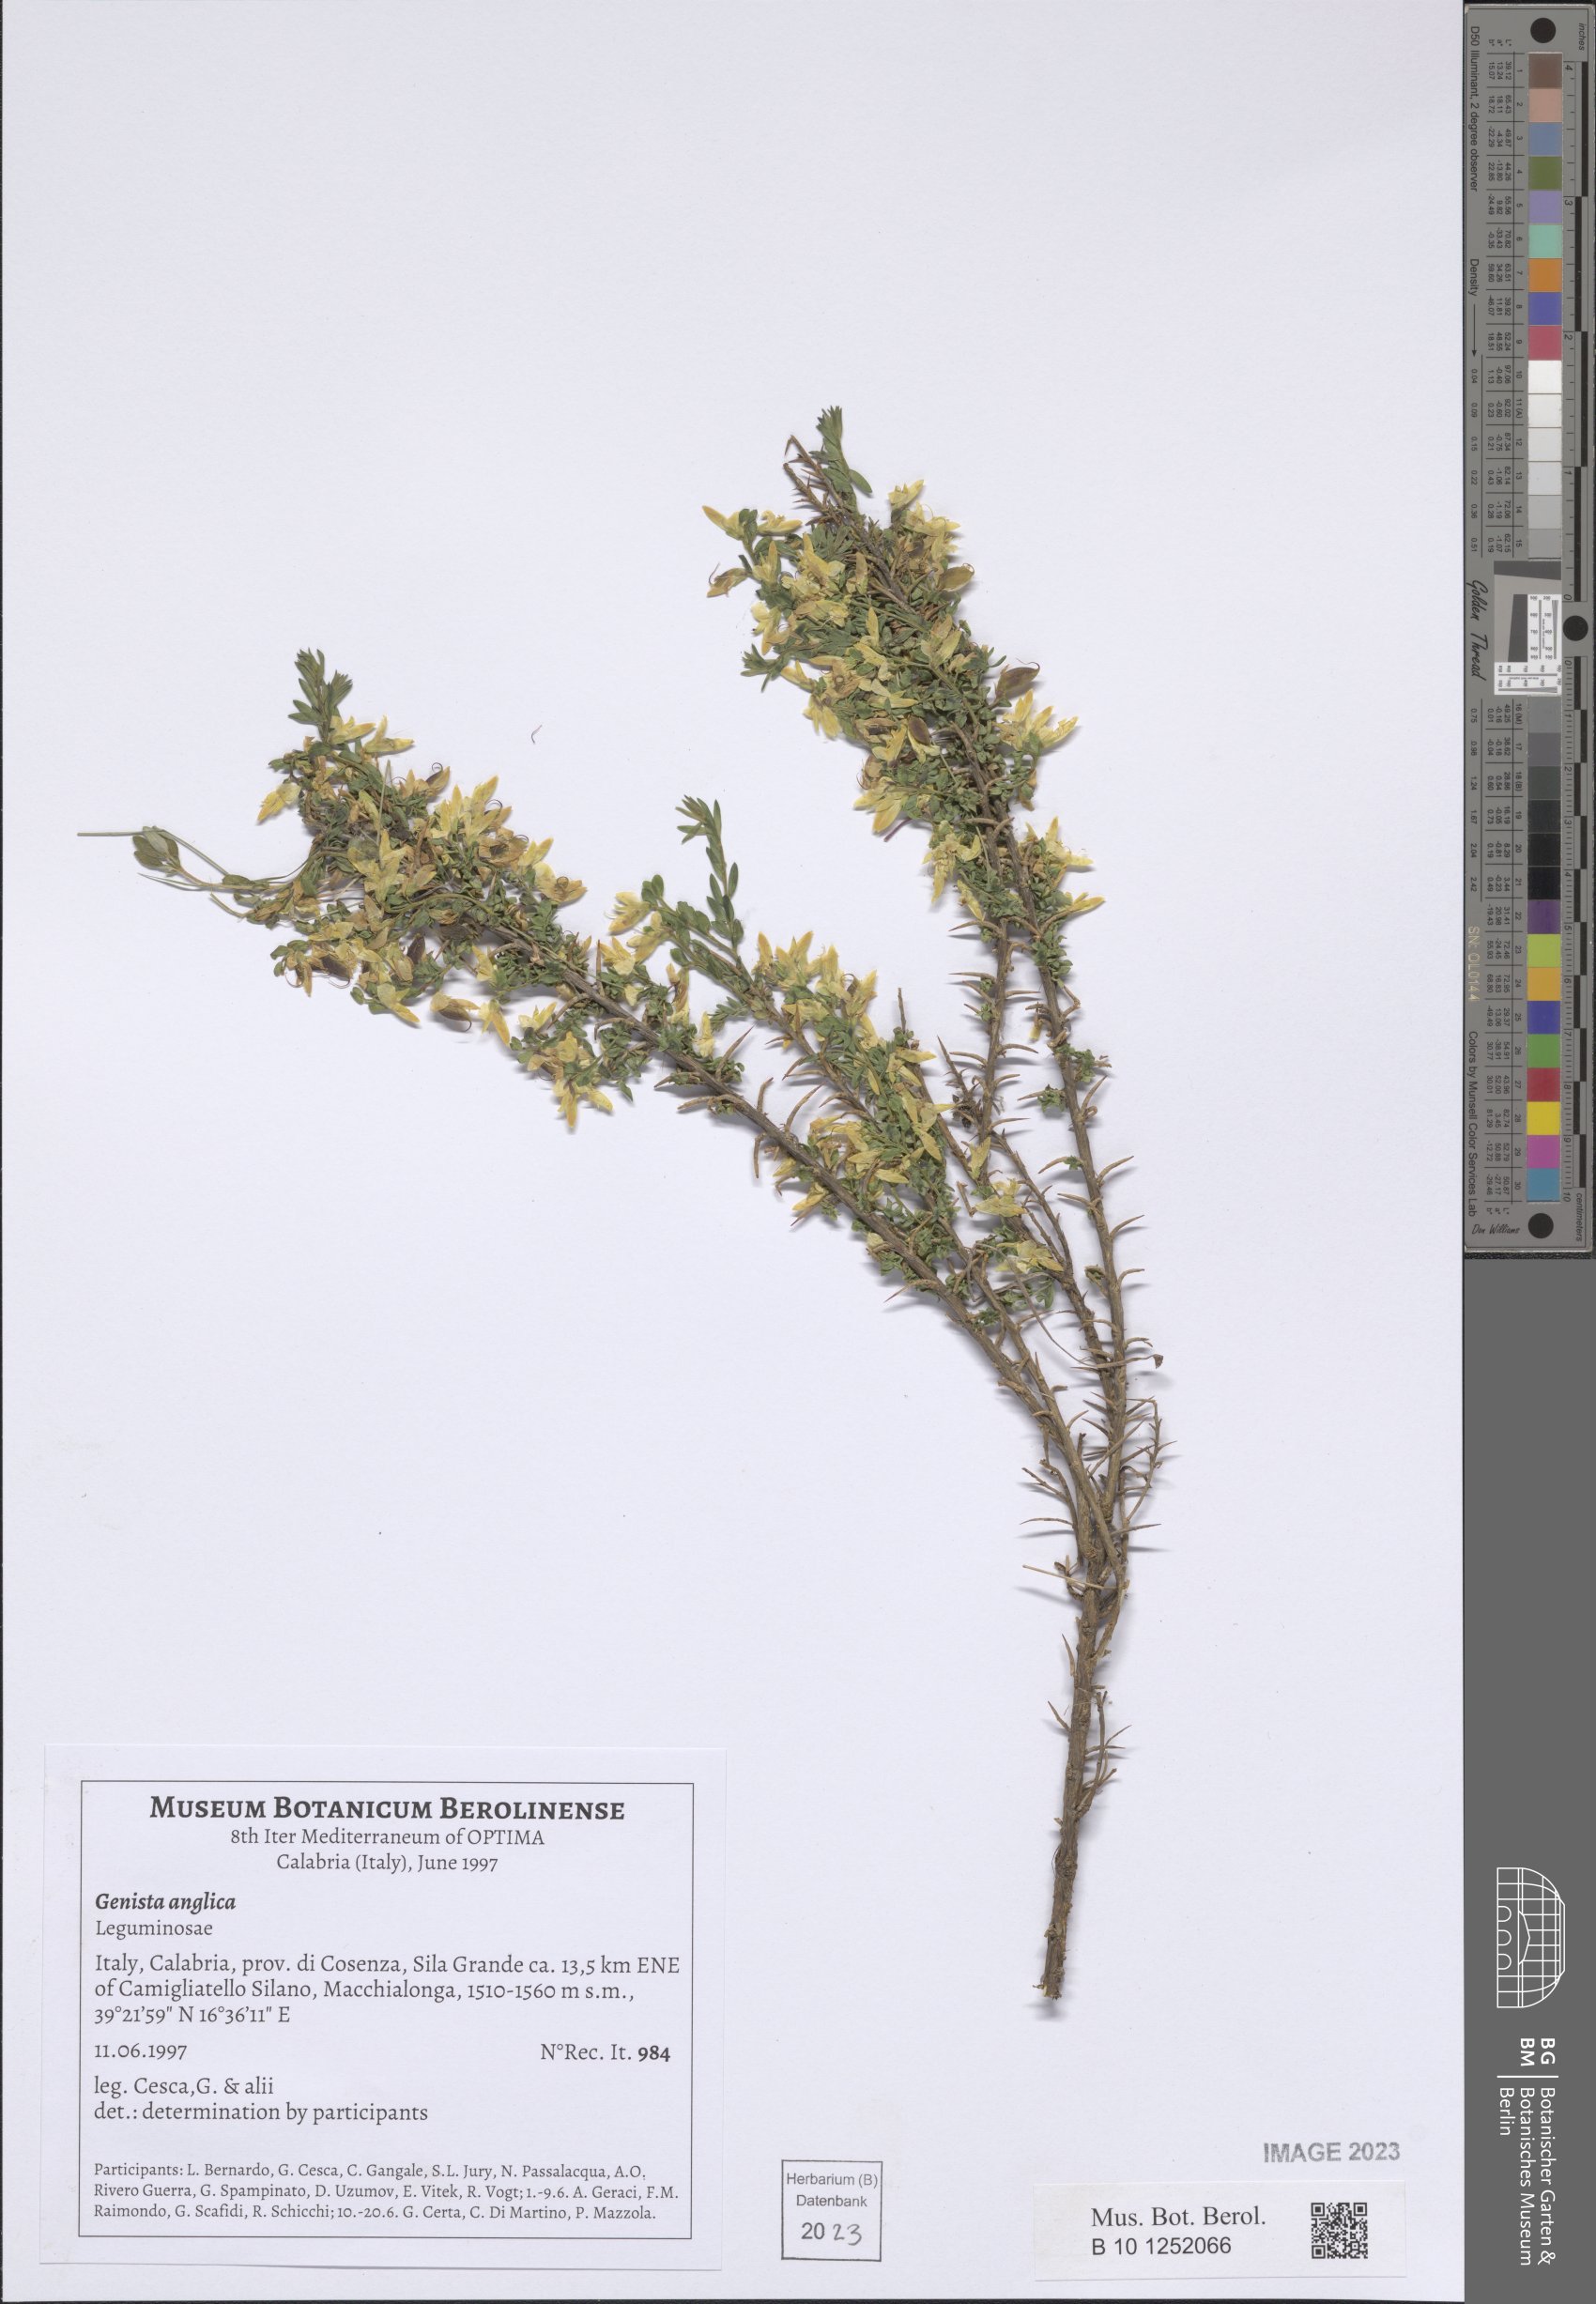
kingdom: Plantae
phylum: Tracheophyta
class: Magnoliopsida
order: Fabales
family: Fabaceae
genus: Genista
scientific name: Genista anglica
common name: Petty whin
